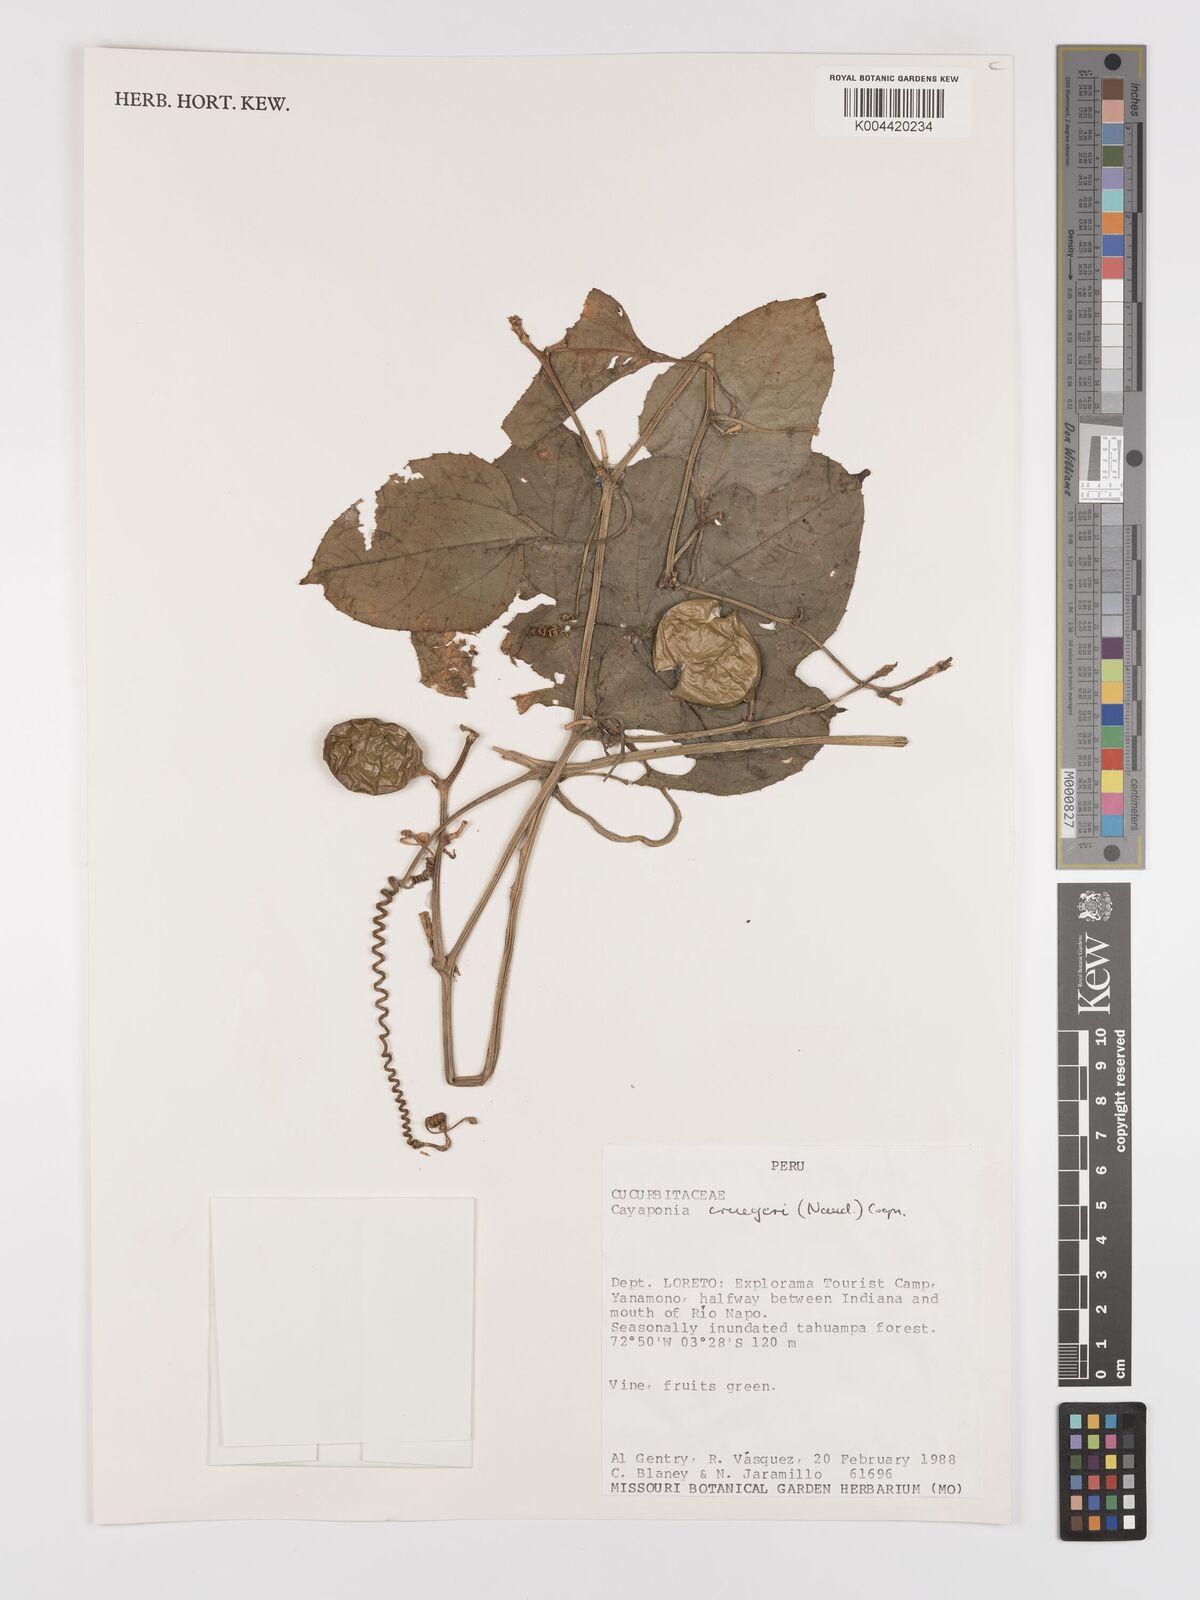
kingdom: Plantae
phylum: Tracheophyta
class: Magnoliopsida
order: Cucurbitales
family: Cucurbitaceae
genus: Cayaponia
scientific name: Cayaponia cruegeri
